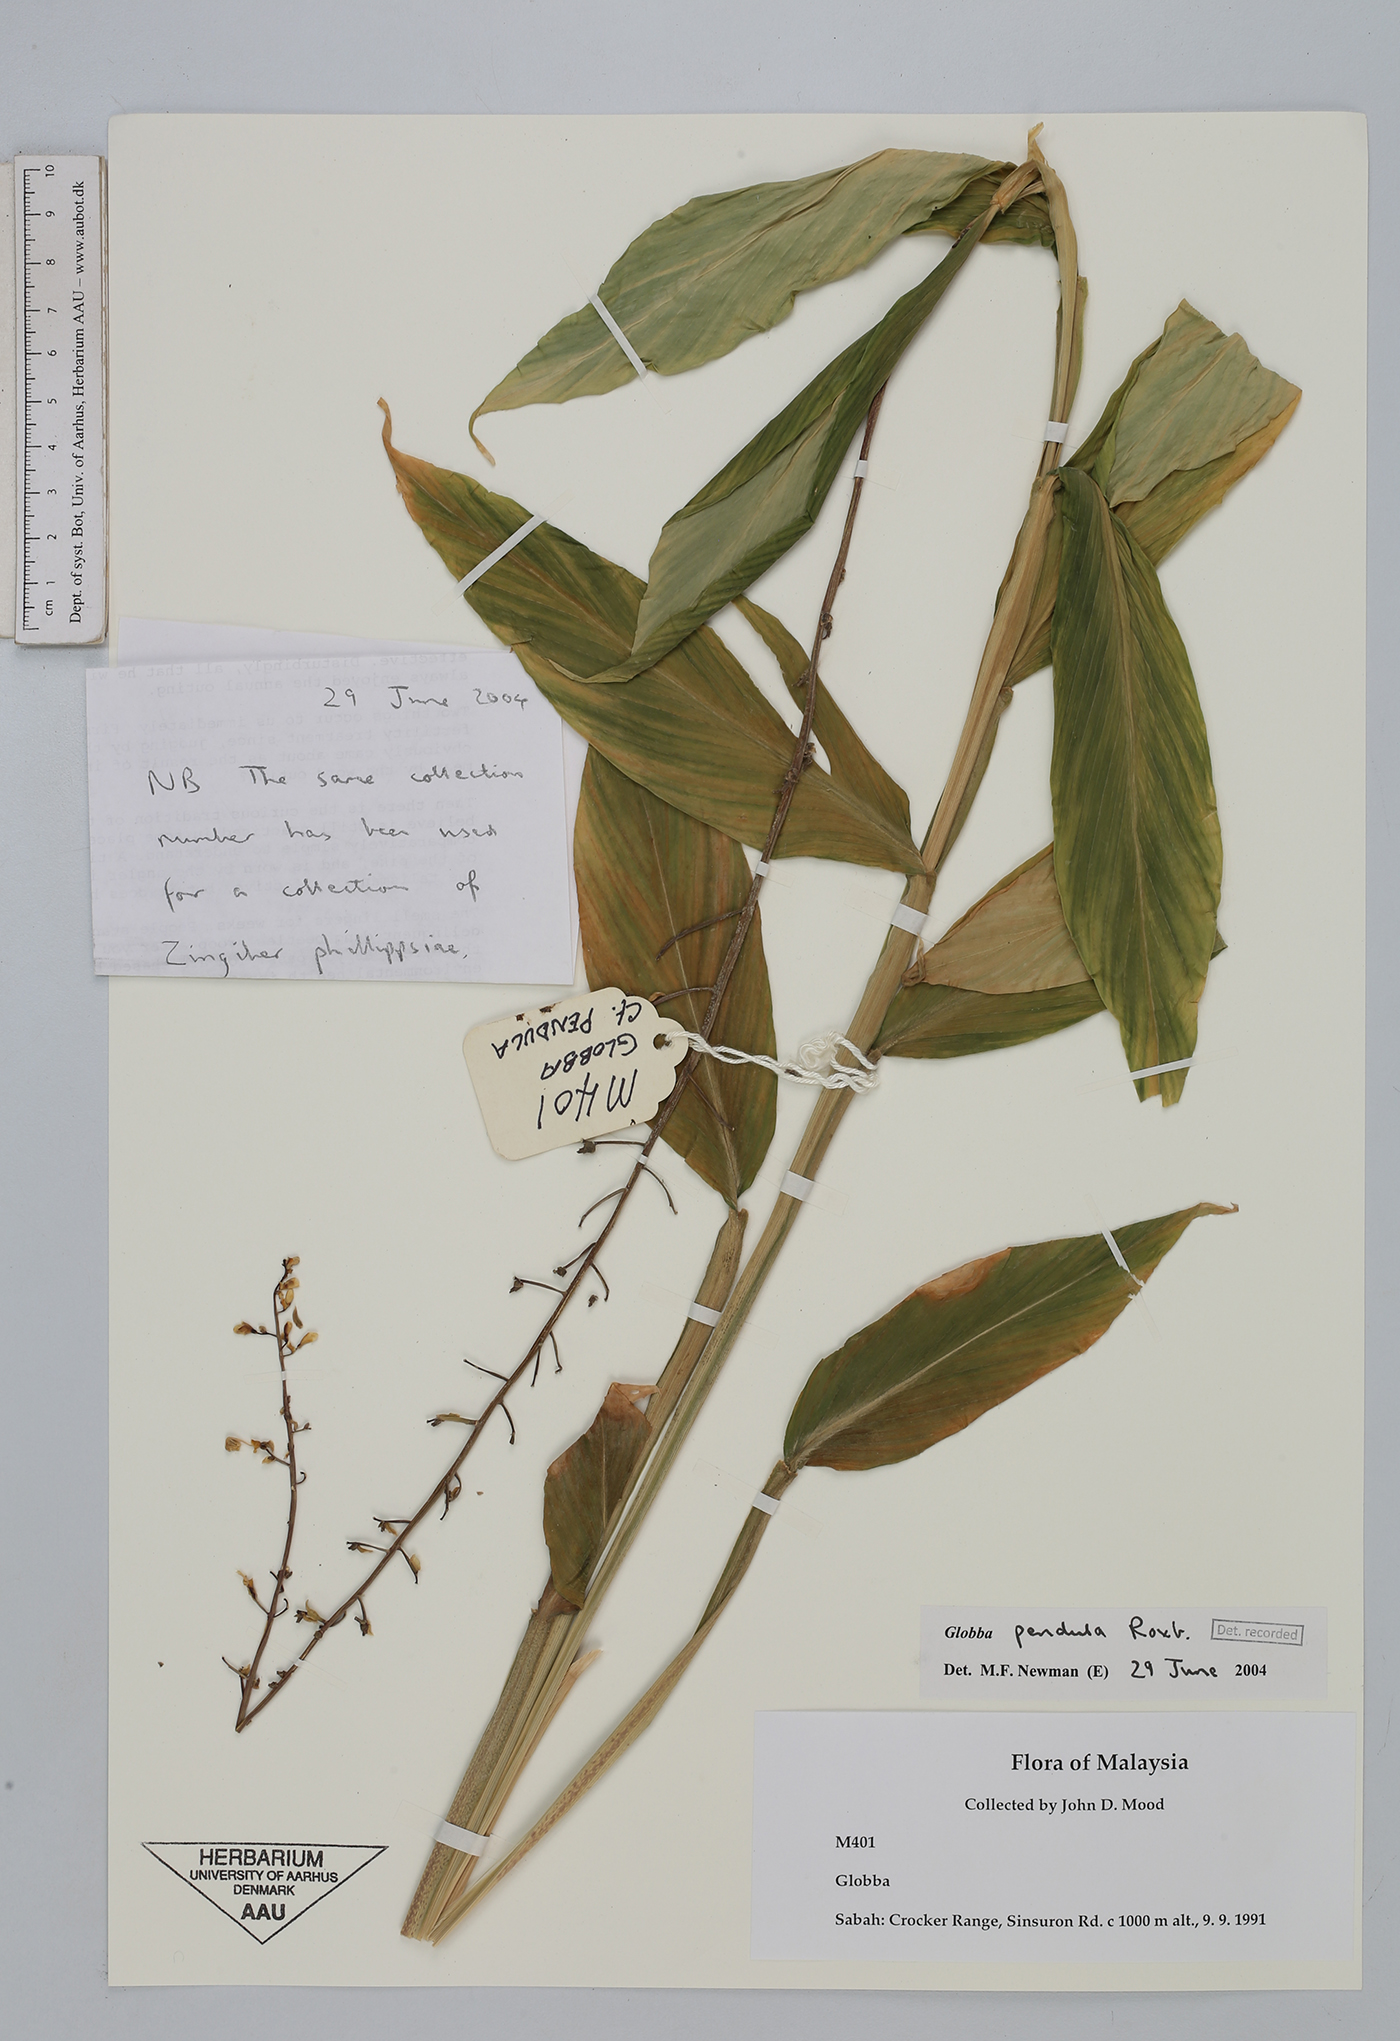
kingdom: Plantae
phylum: Tracheophyta
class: Liliopsida
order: Zingiberales
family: Zingiberaceae
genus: Globba
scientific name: Globba pendula
